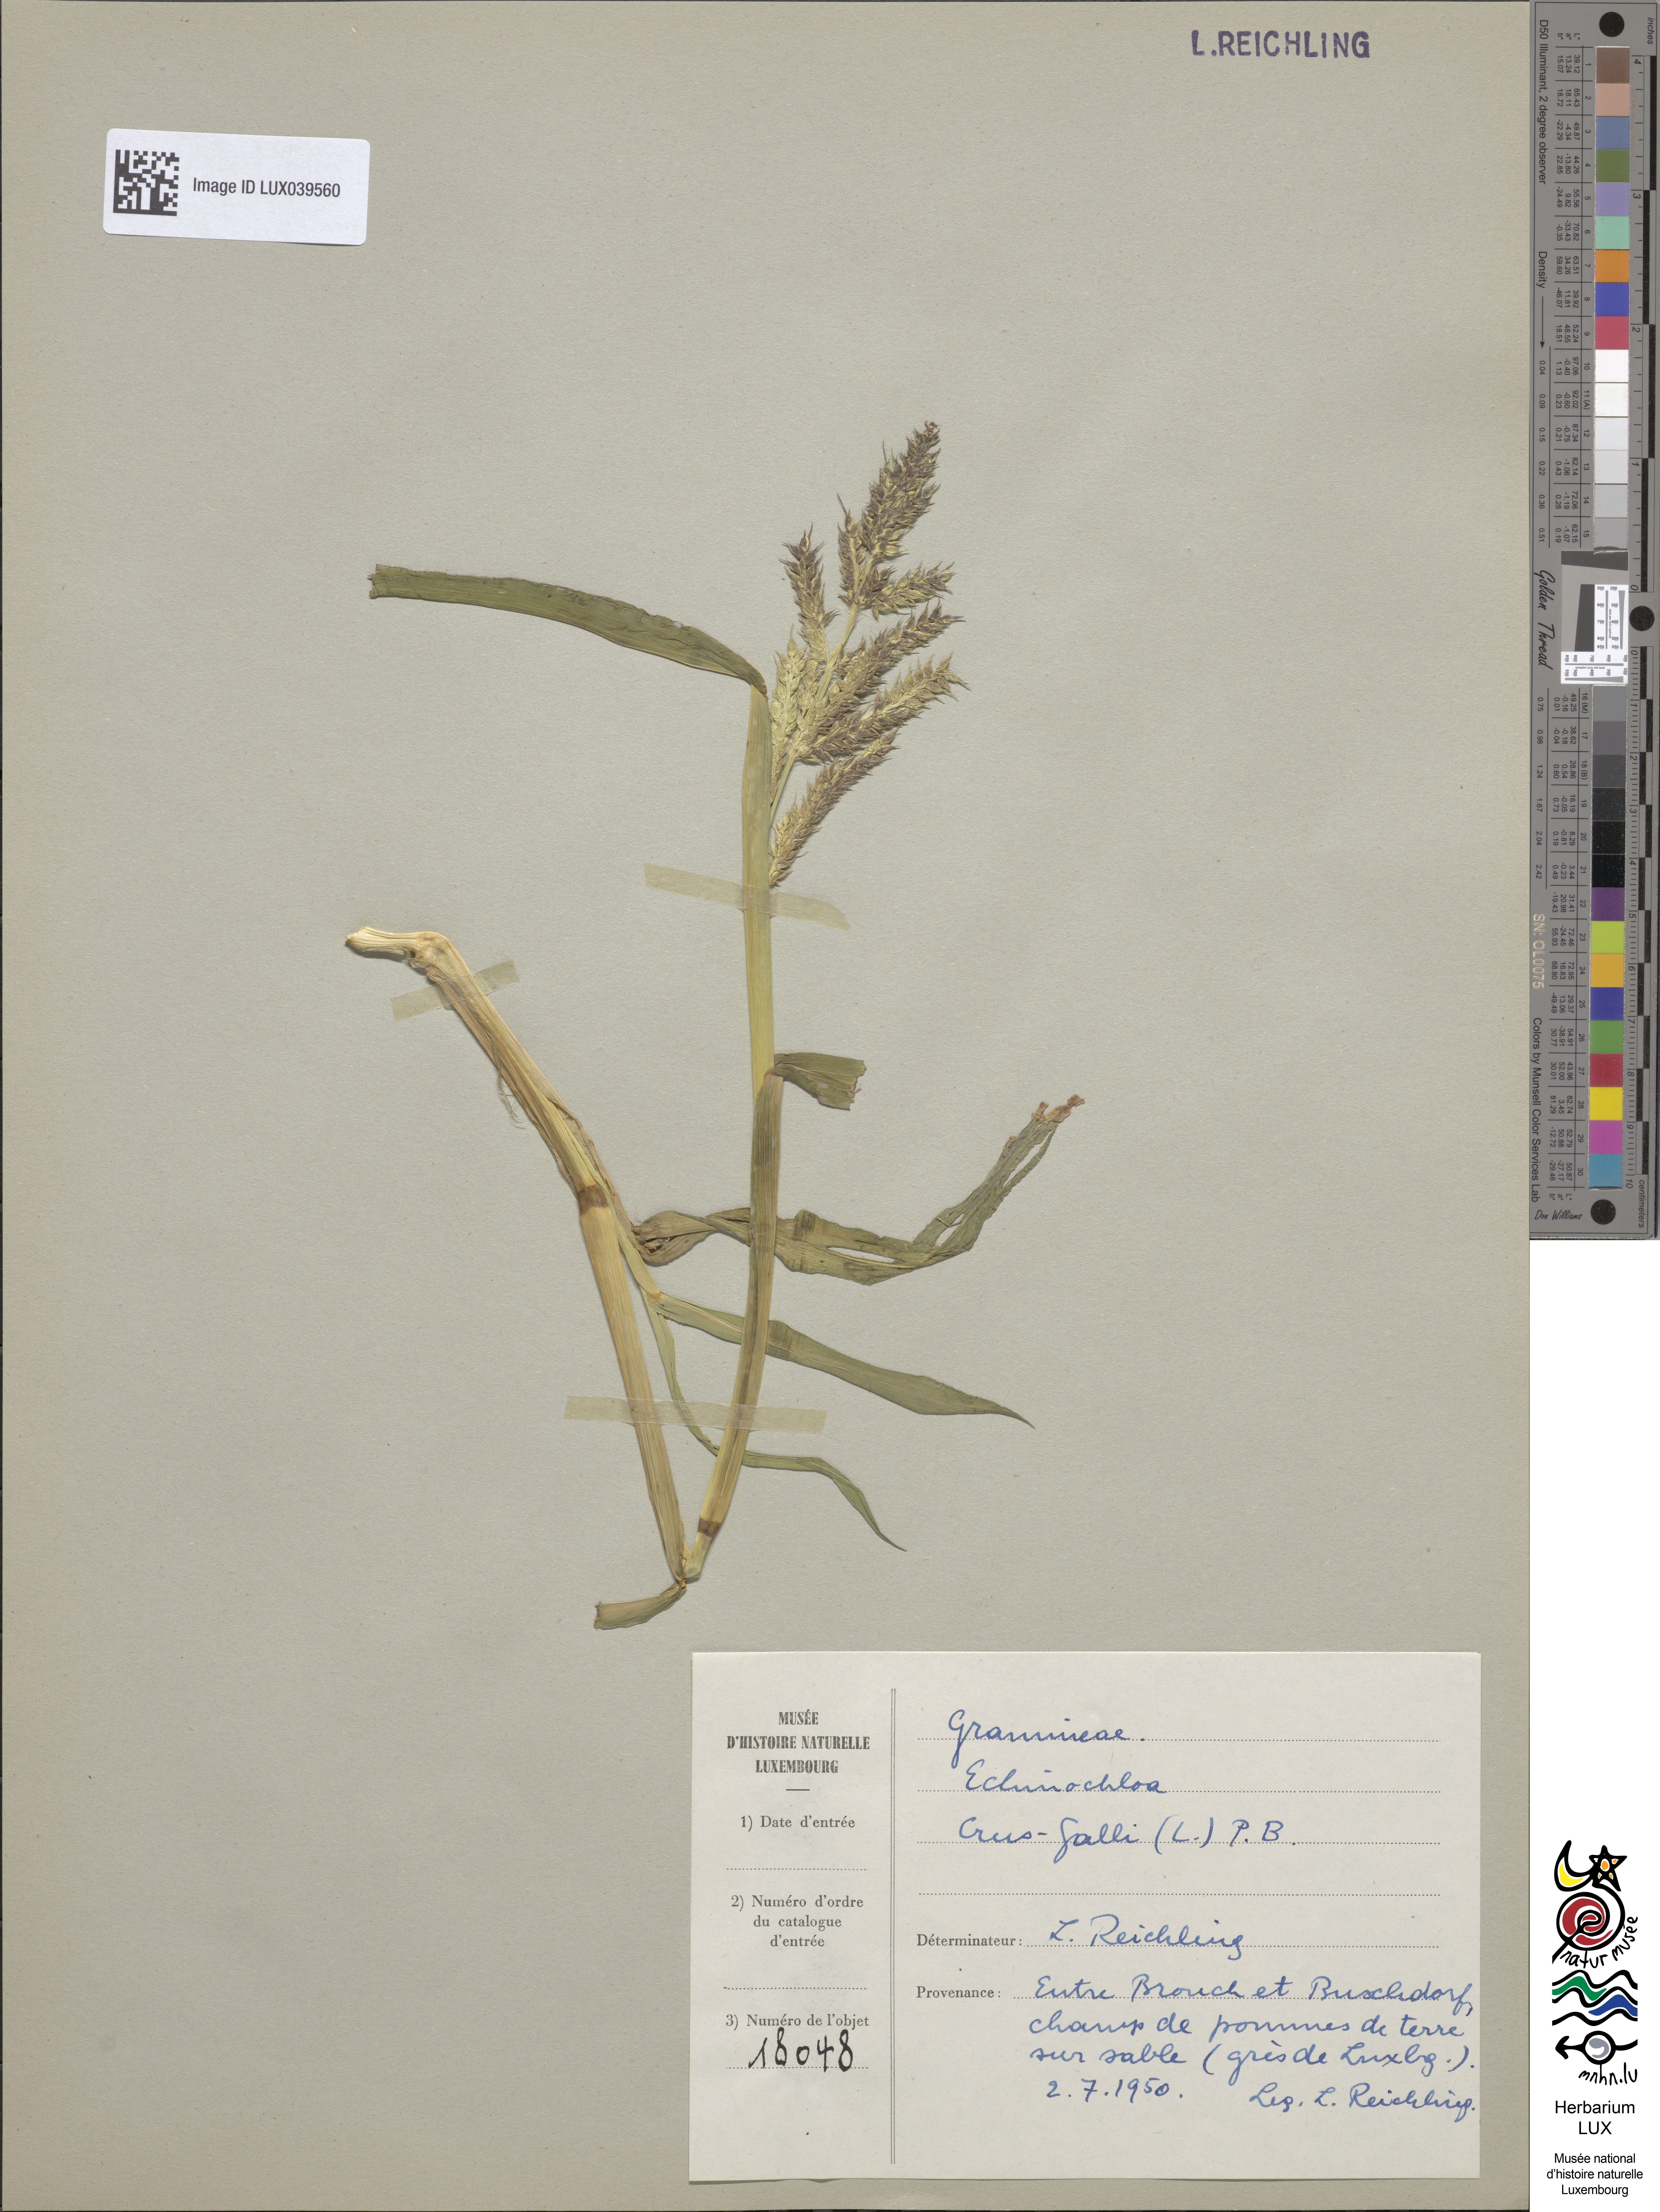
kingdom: Plantae
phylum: Tracheophyta
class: Liliopsida
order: Poales
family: Poaceae
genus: Echinochloa
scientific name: Echinochloa crus-galli
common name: Cockspur
